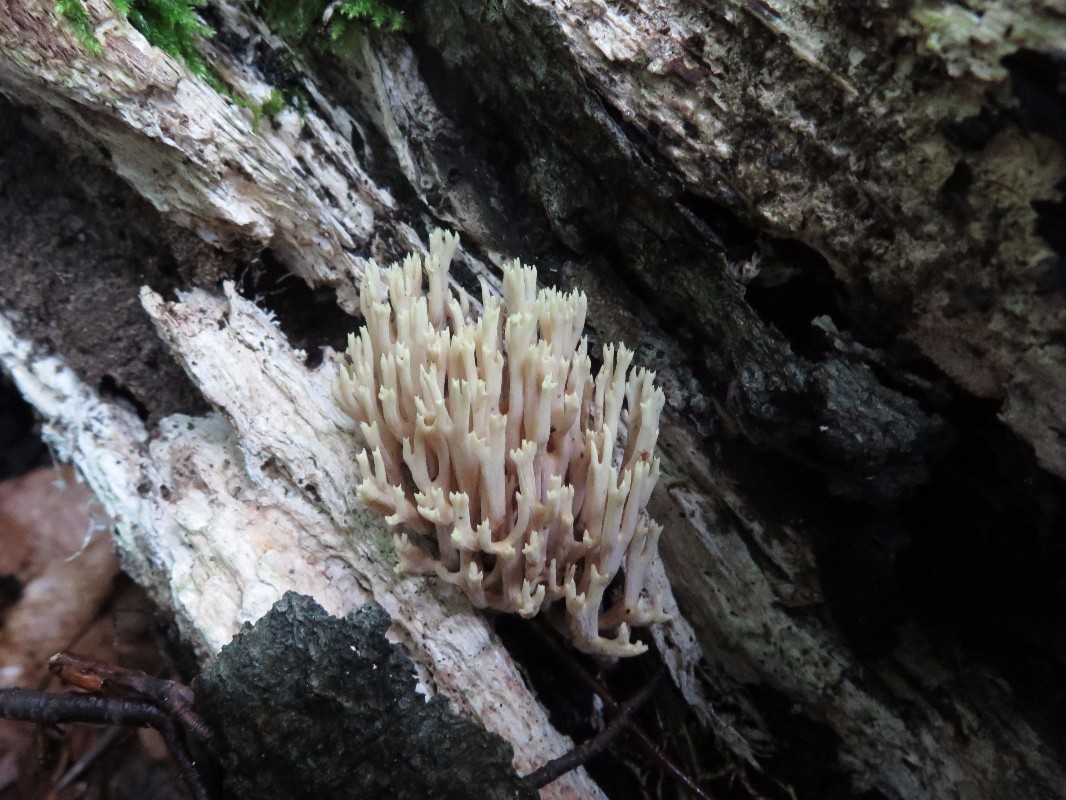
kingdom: Fungi
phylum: Basidiomycota
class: Agaricomycetes
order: Gomphales
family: Gomphaceae
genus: Ramaria
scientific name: Ramaria stricta
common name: rank koralsvamp
